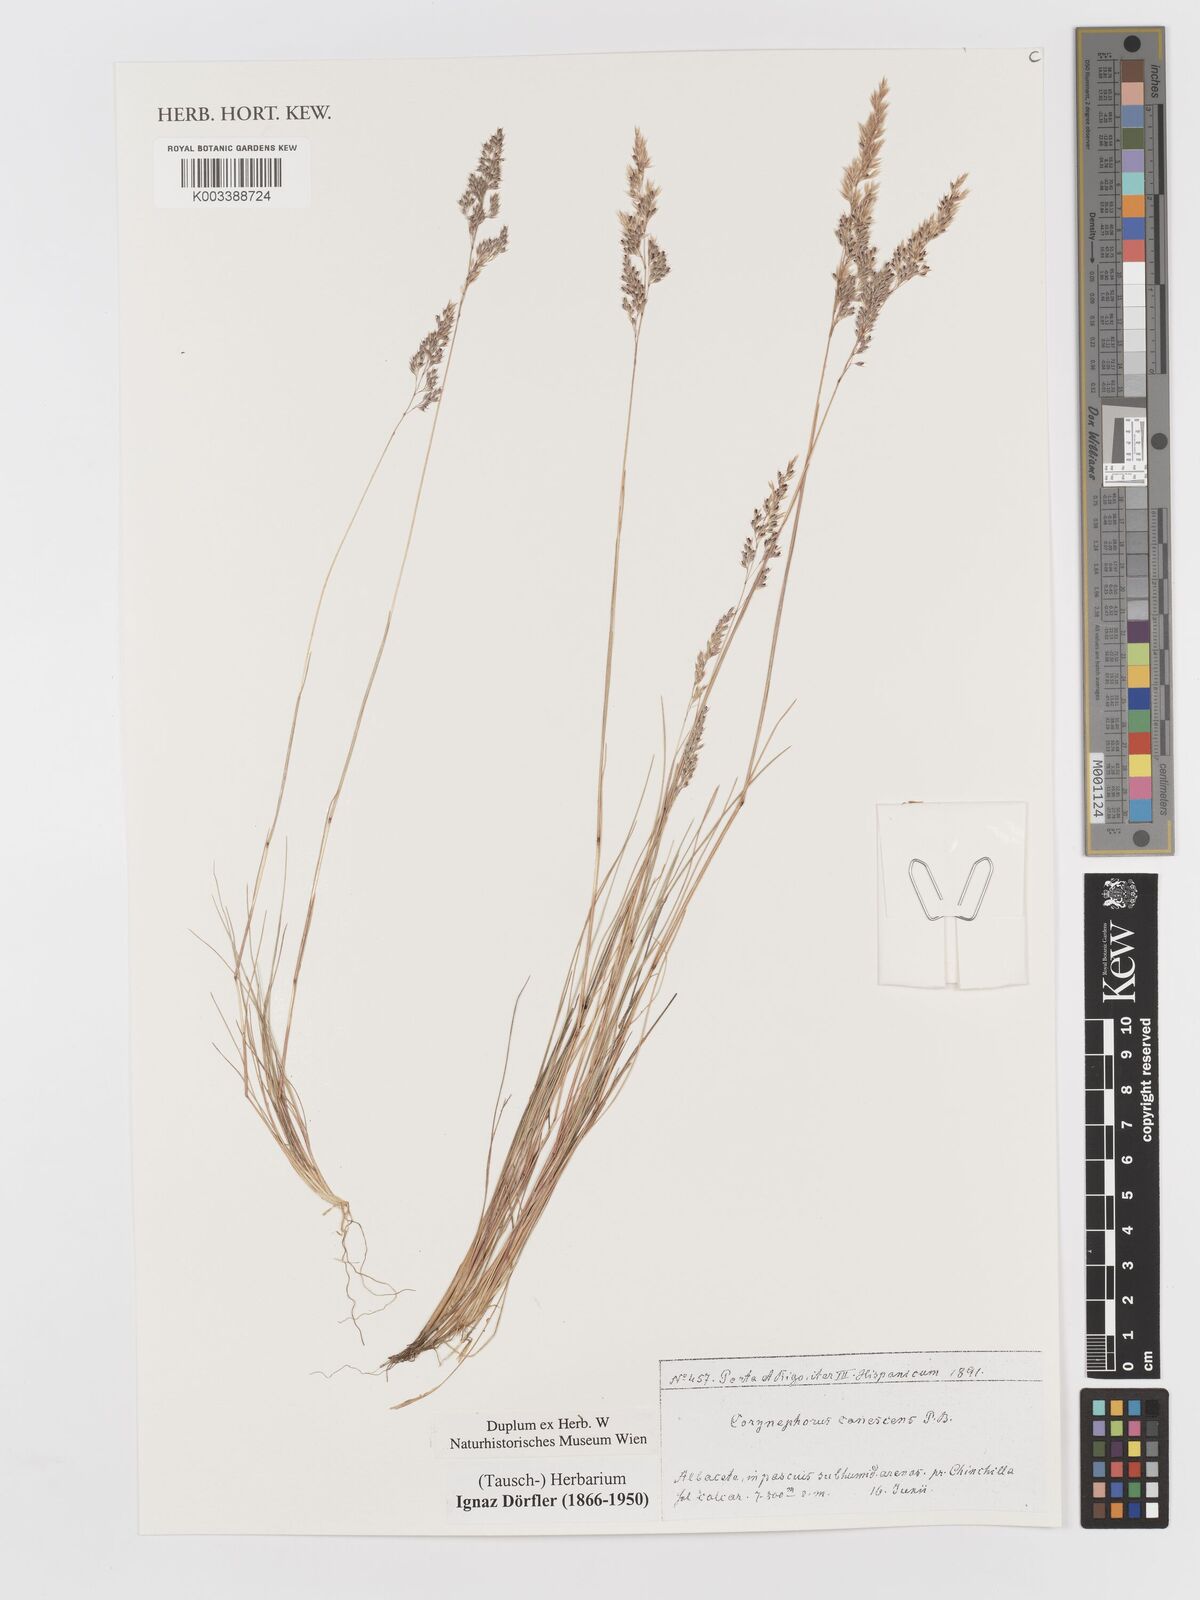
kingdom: Plantae
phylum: Tracheophyta
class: Liliopsida
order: Poales
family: Poaceae
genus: Corynephorus
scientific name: Corynephorus canescens
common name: Grey hair-grass
